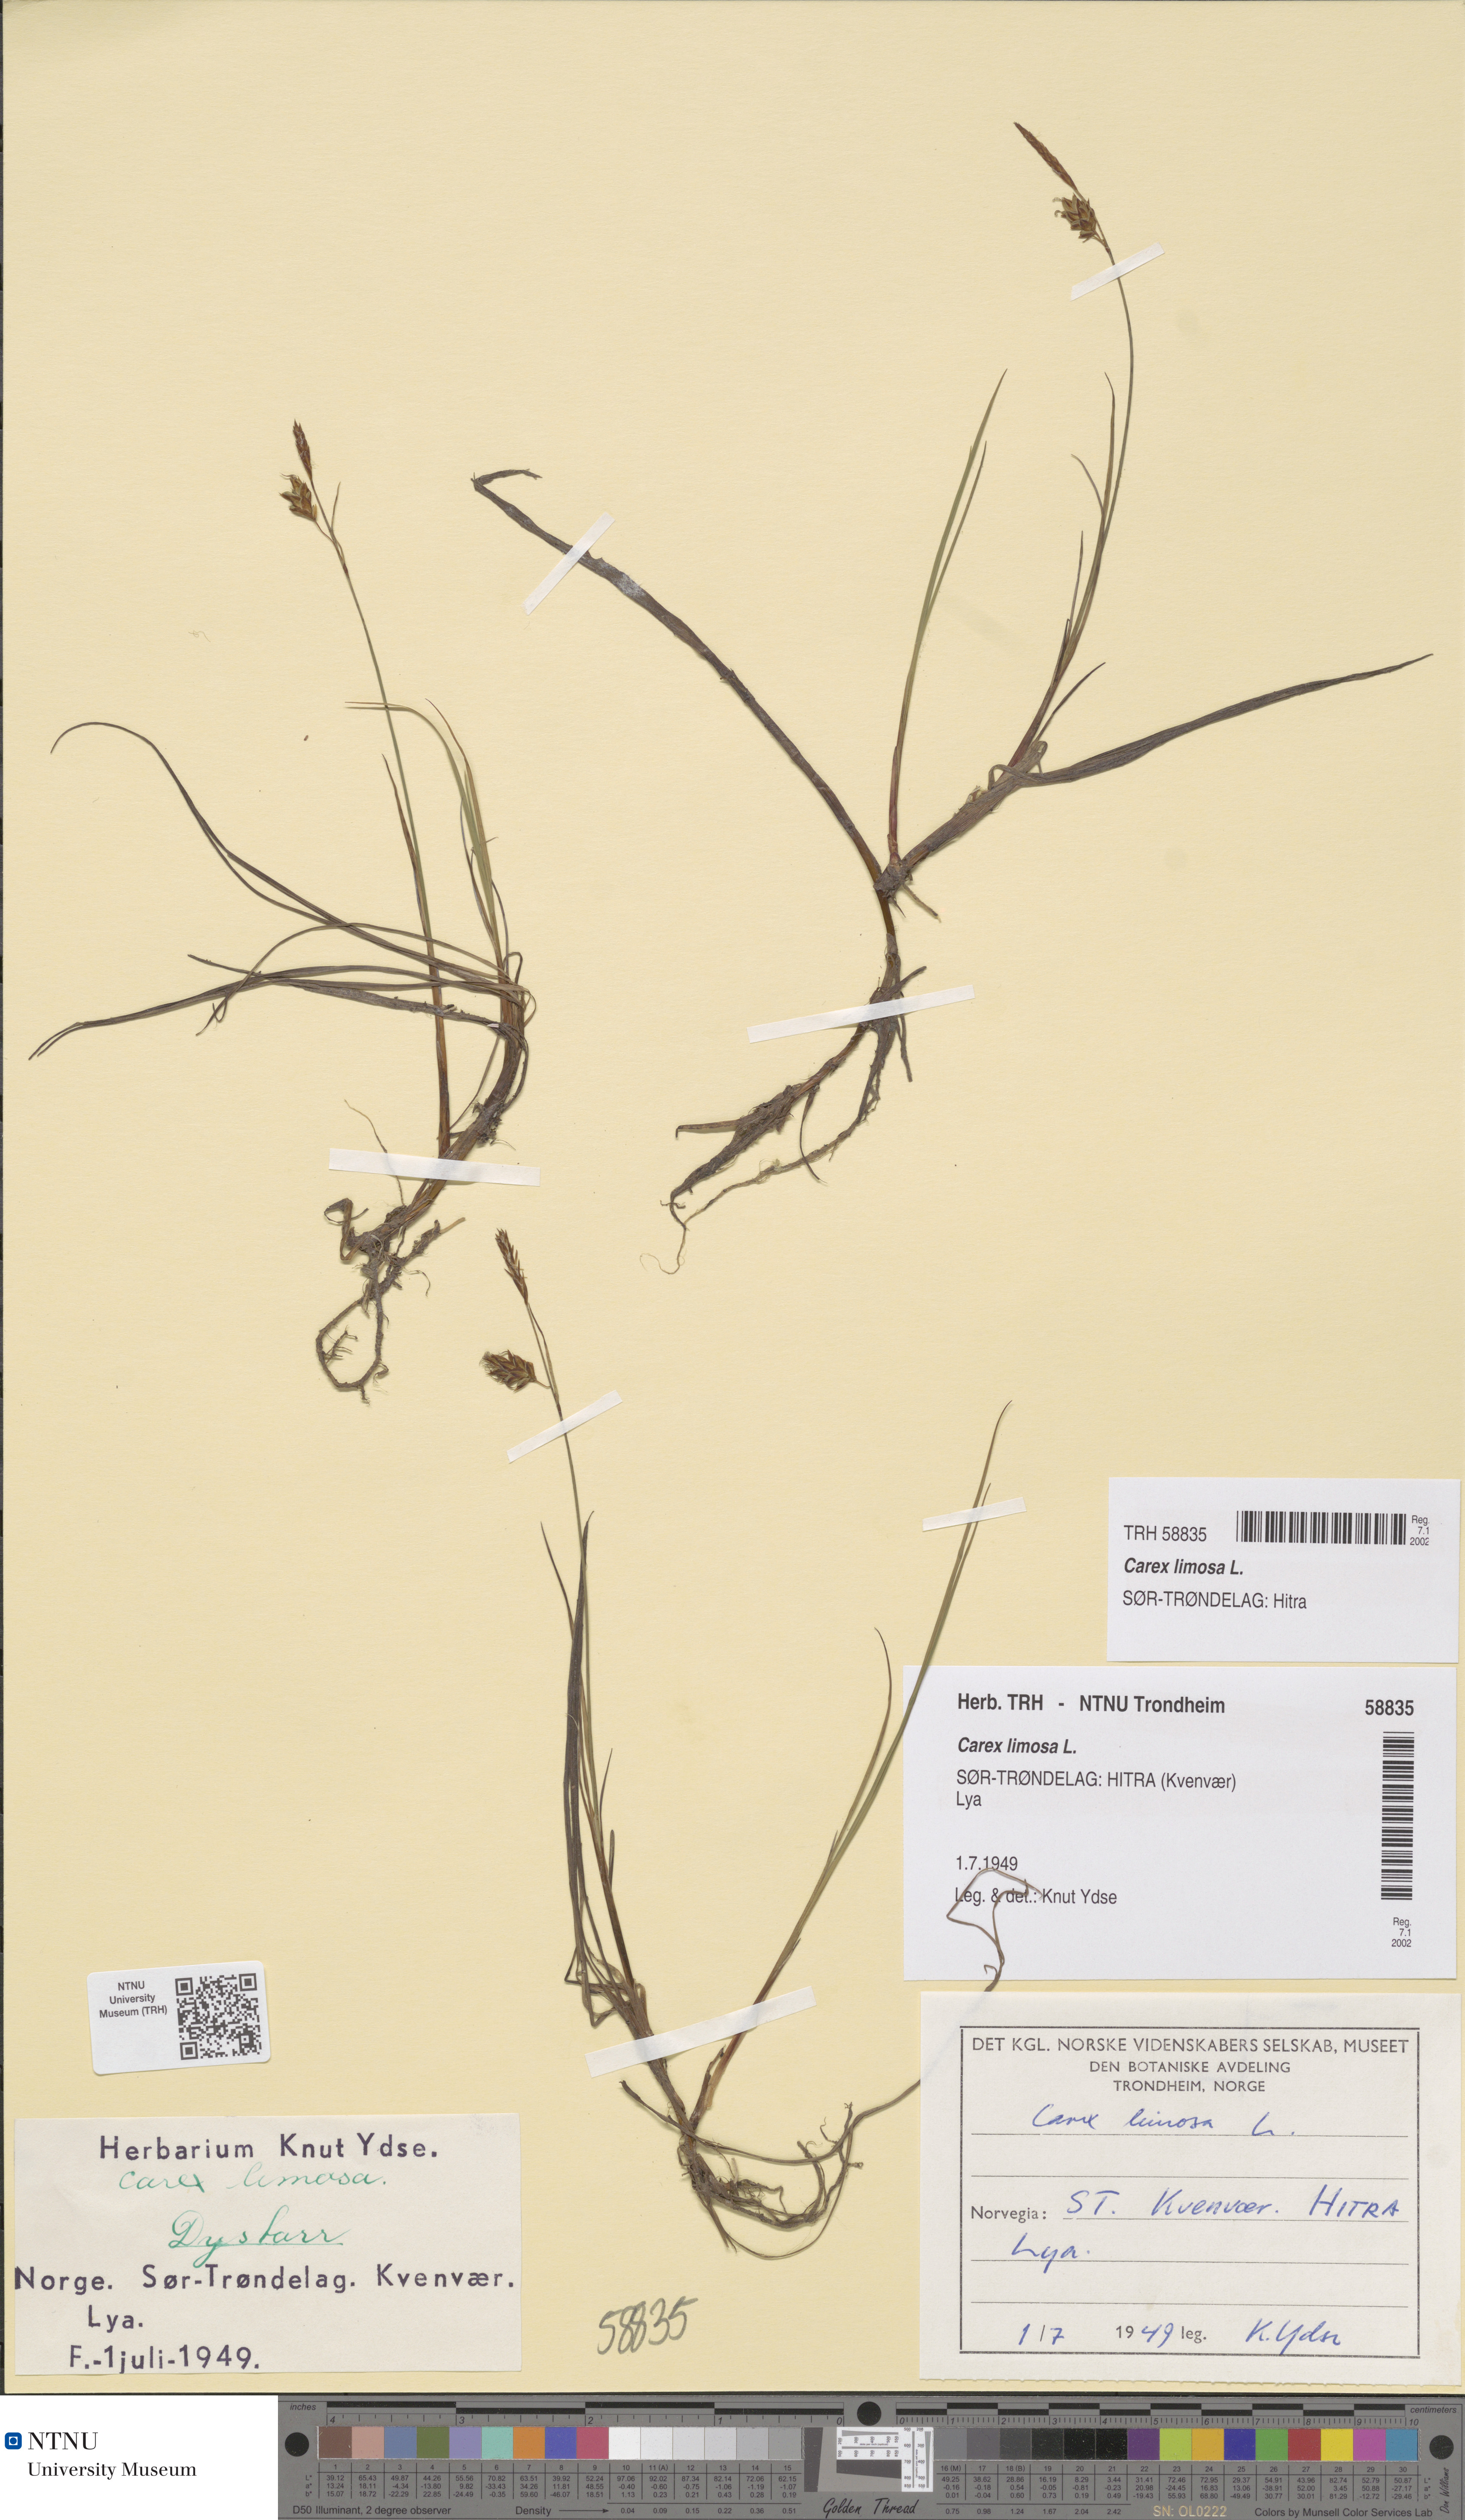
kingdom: Plantae
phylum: Tracheophyta
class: Liliopsida
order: Poales
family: Cyperaceae
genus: Carex
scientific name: Carex limosa
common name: Bog sedge
